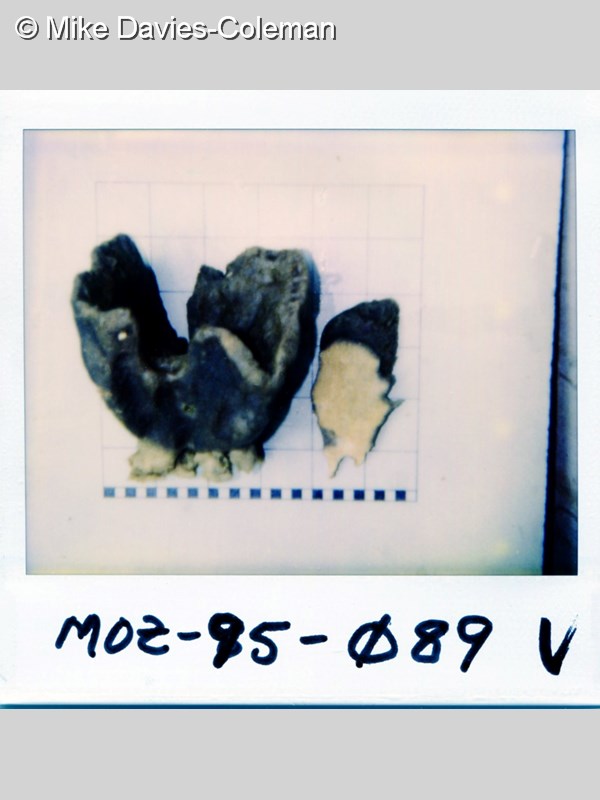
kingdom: Animalia
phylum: Porifera
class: Demospongiae
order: Dictyoceratida
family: Irciniidae
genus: Psammocinia
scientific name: Psammocinia hawere
